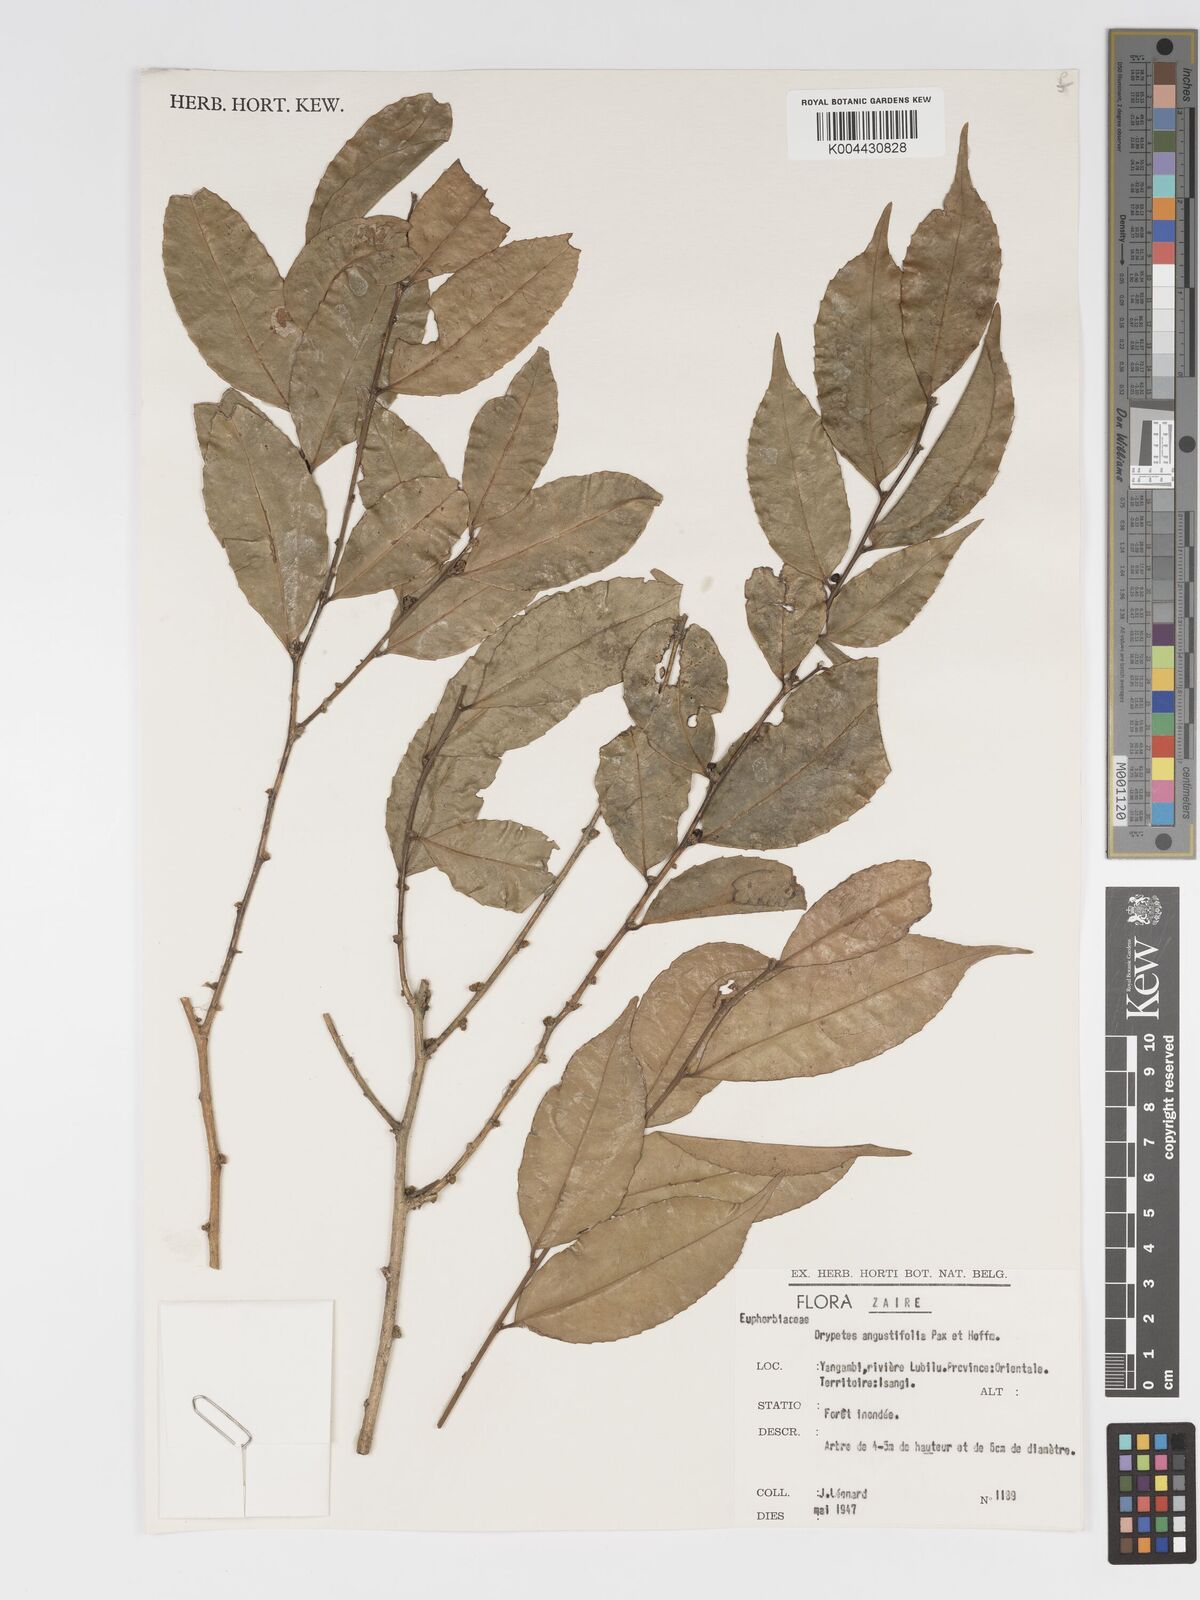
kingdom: Plantae
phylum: Tracheophyta
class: Magnoliopsida
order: Malpighiales
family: Putranjivaceae
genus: Drypetes
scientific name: Drypetes angustifolia
